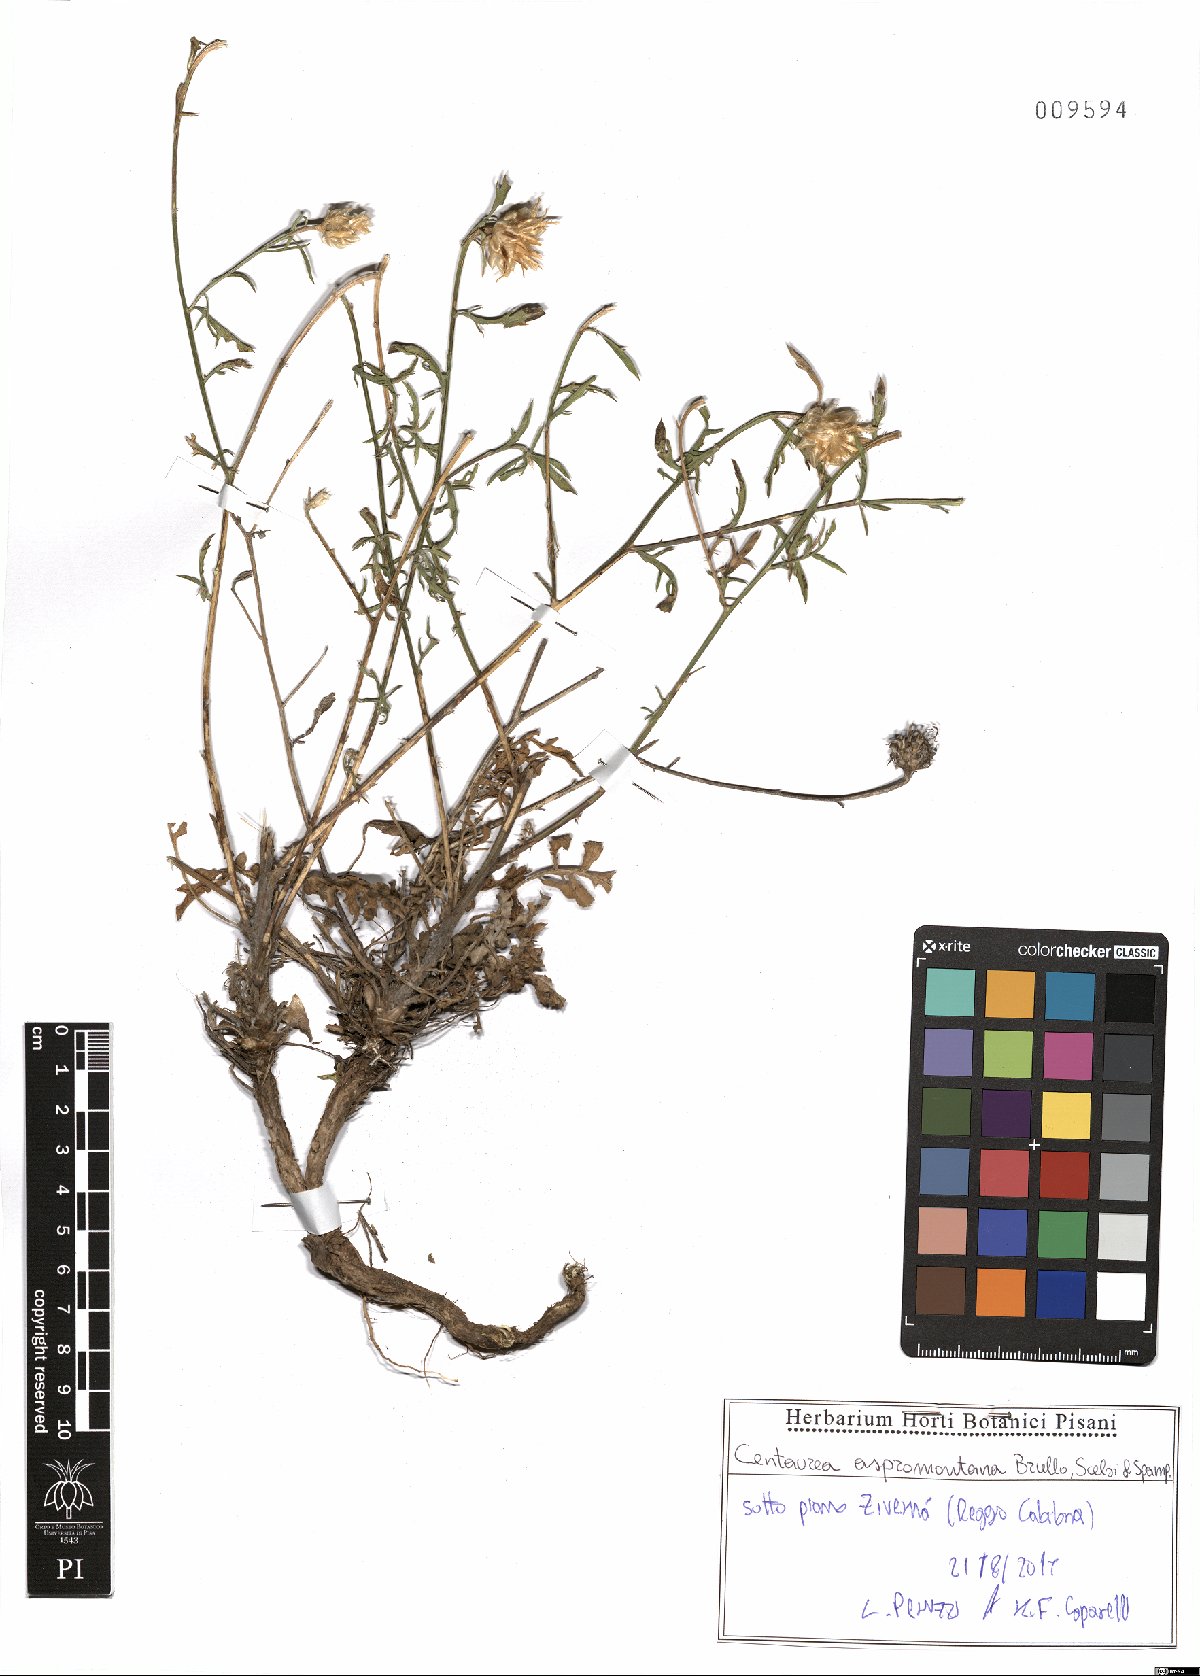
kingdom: Plantae
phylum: Tracheophyta
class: Magnoliopsida
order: Asterales
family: Asteraceae
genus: Centaurea
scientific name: Centaurea aspromontana
